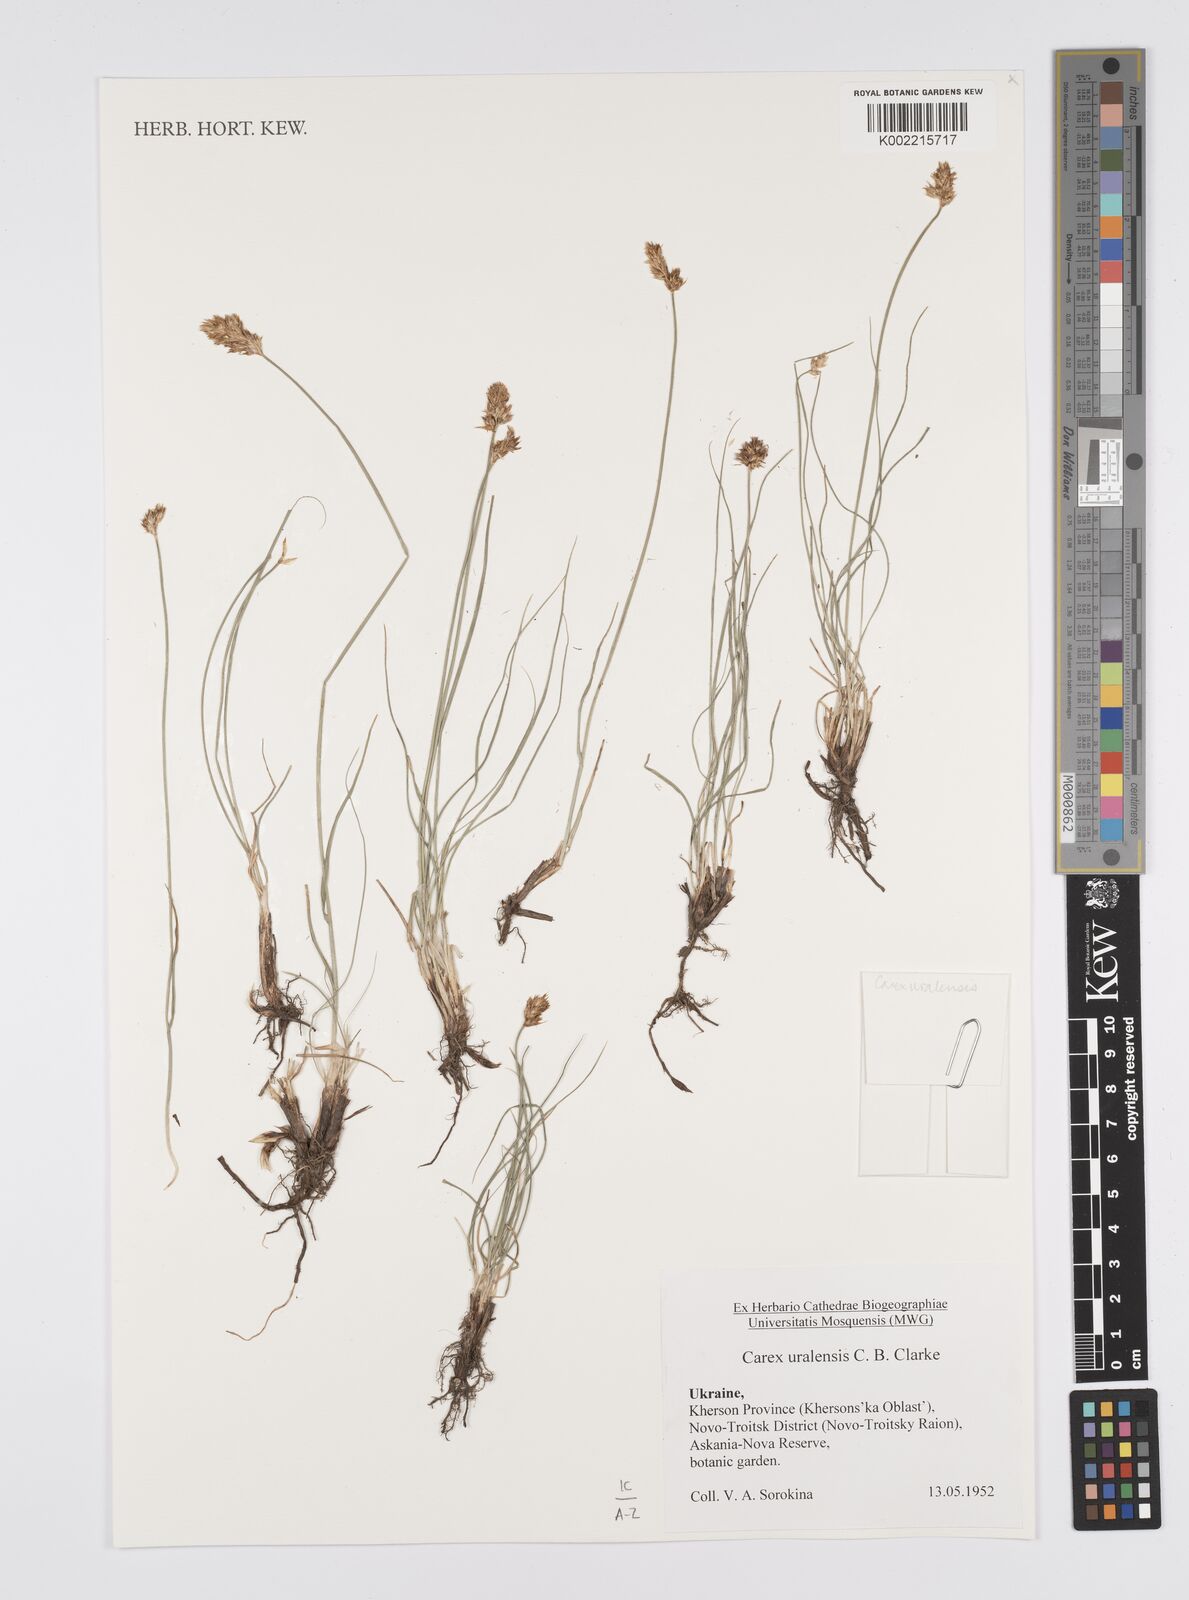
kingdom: Plantae
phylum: Tracheophyta
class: Liliopsida
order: Poales
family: Cyperaceae
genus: Carex
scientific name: Carex stenophylla
